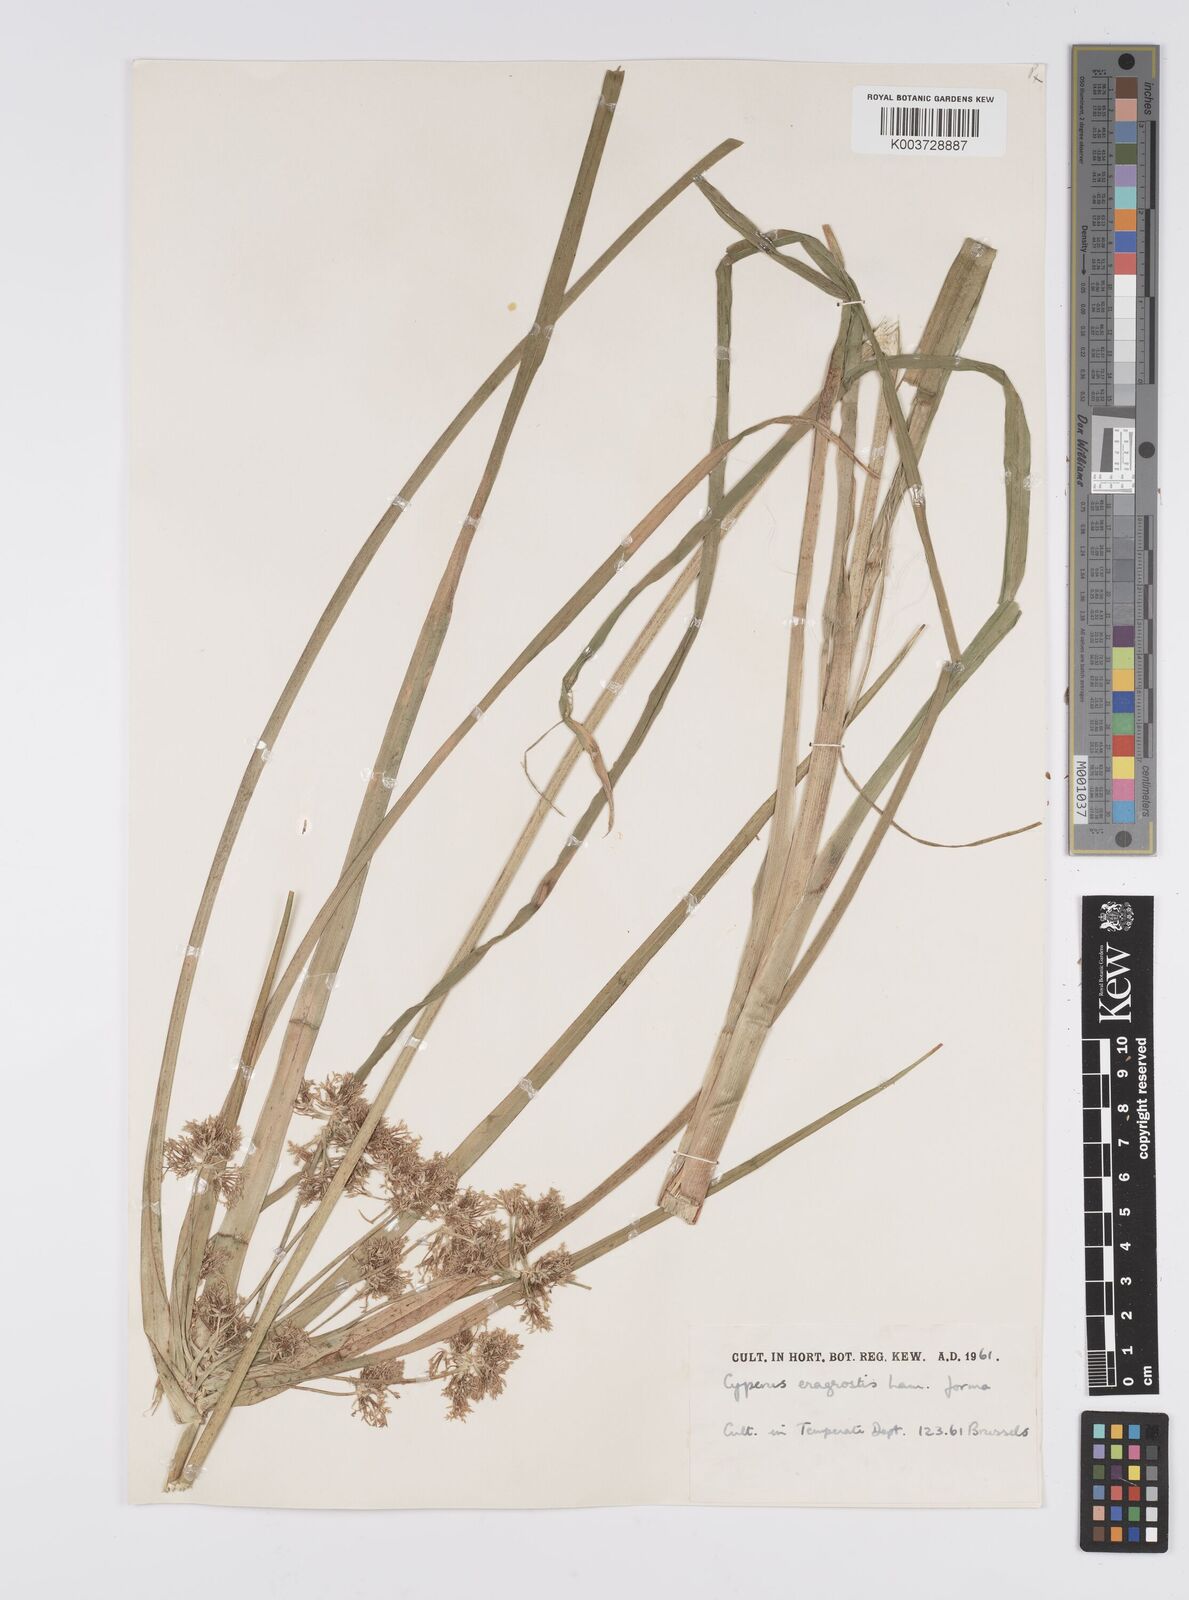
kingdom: Plantae
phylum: Tracheophyta
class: Liliopsida
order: Poales
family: Cyperaceae
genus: Cyperus
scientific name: Cyperus eragrostis
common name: Tall flatsedge
